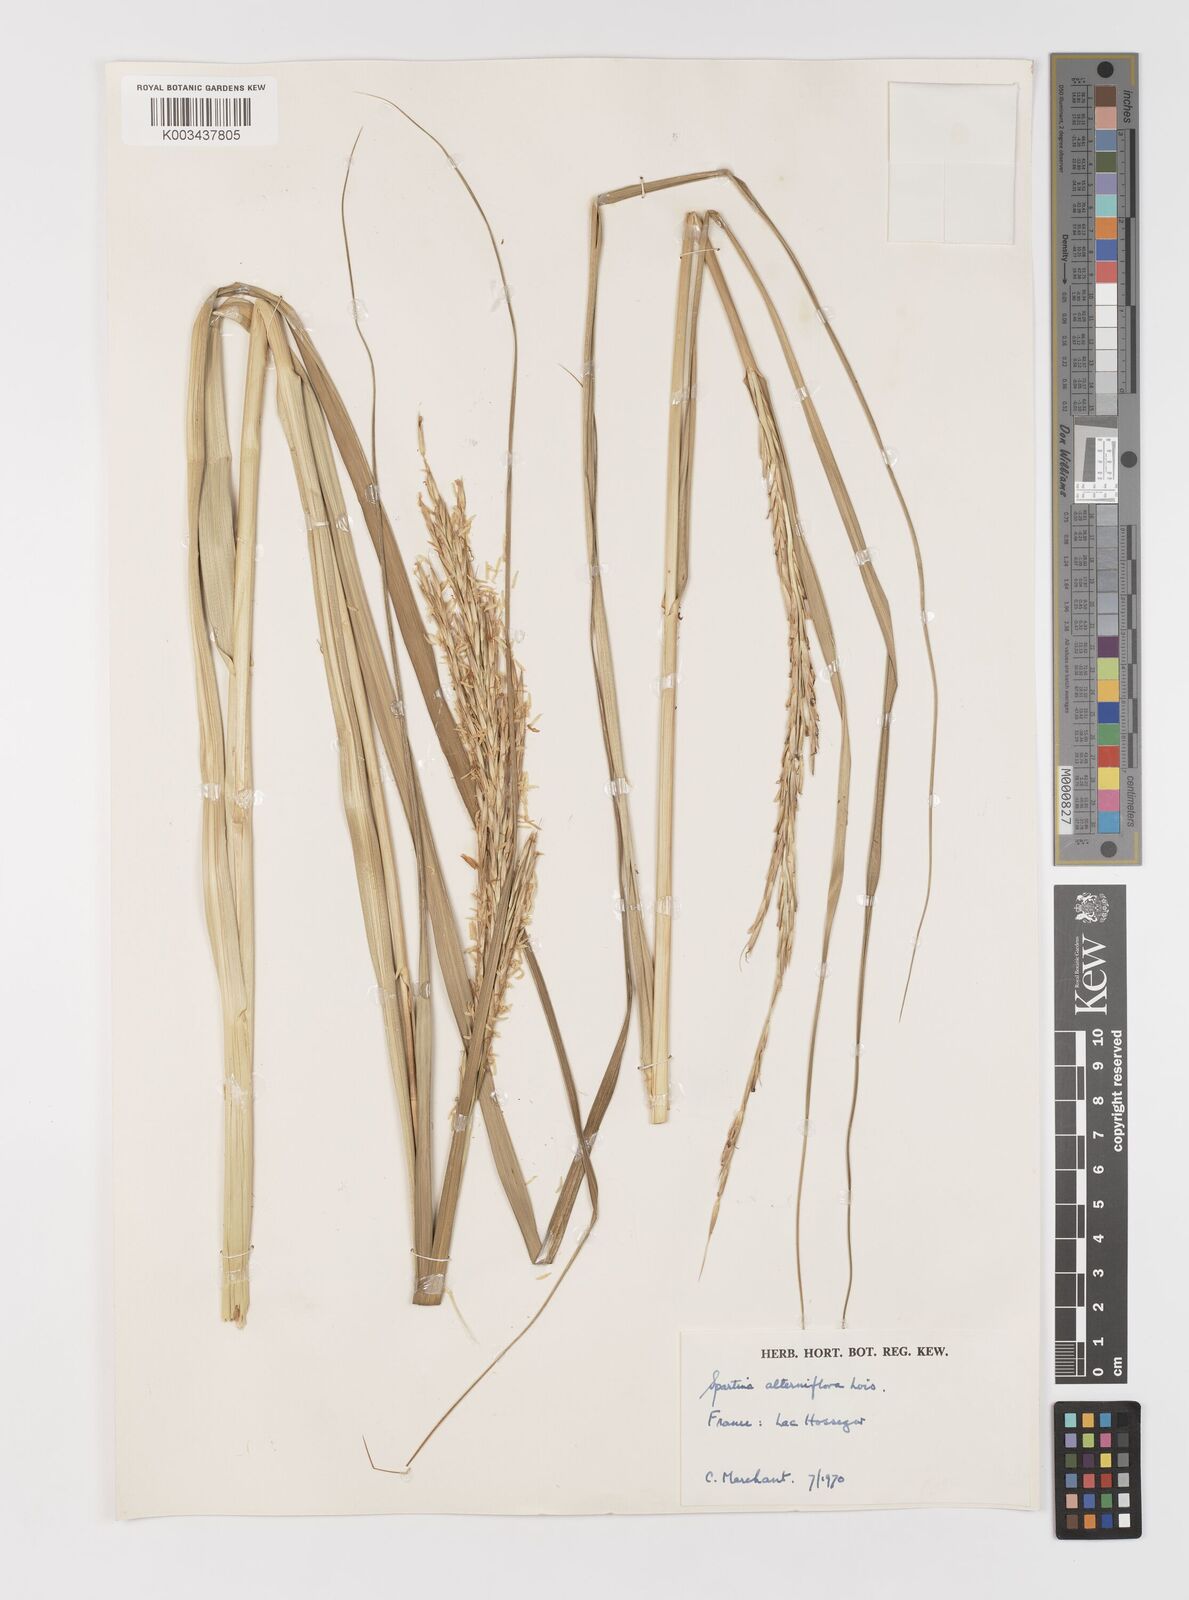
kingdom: Plantae
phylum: Tracheophyta
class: Liliopsida
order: Poales
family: Poaceae
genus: Sporobolus
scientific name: Sporobolus alterniflorus
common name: Atlantic cordgrass
